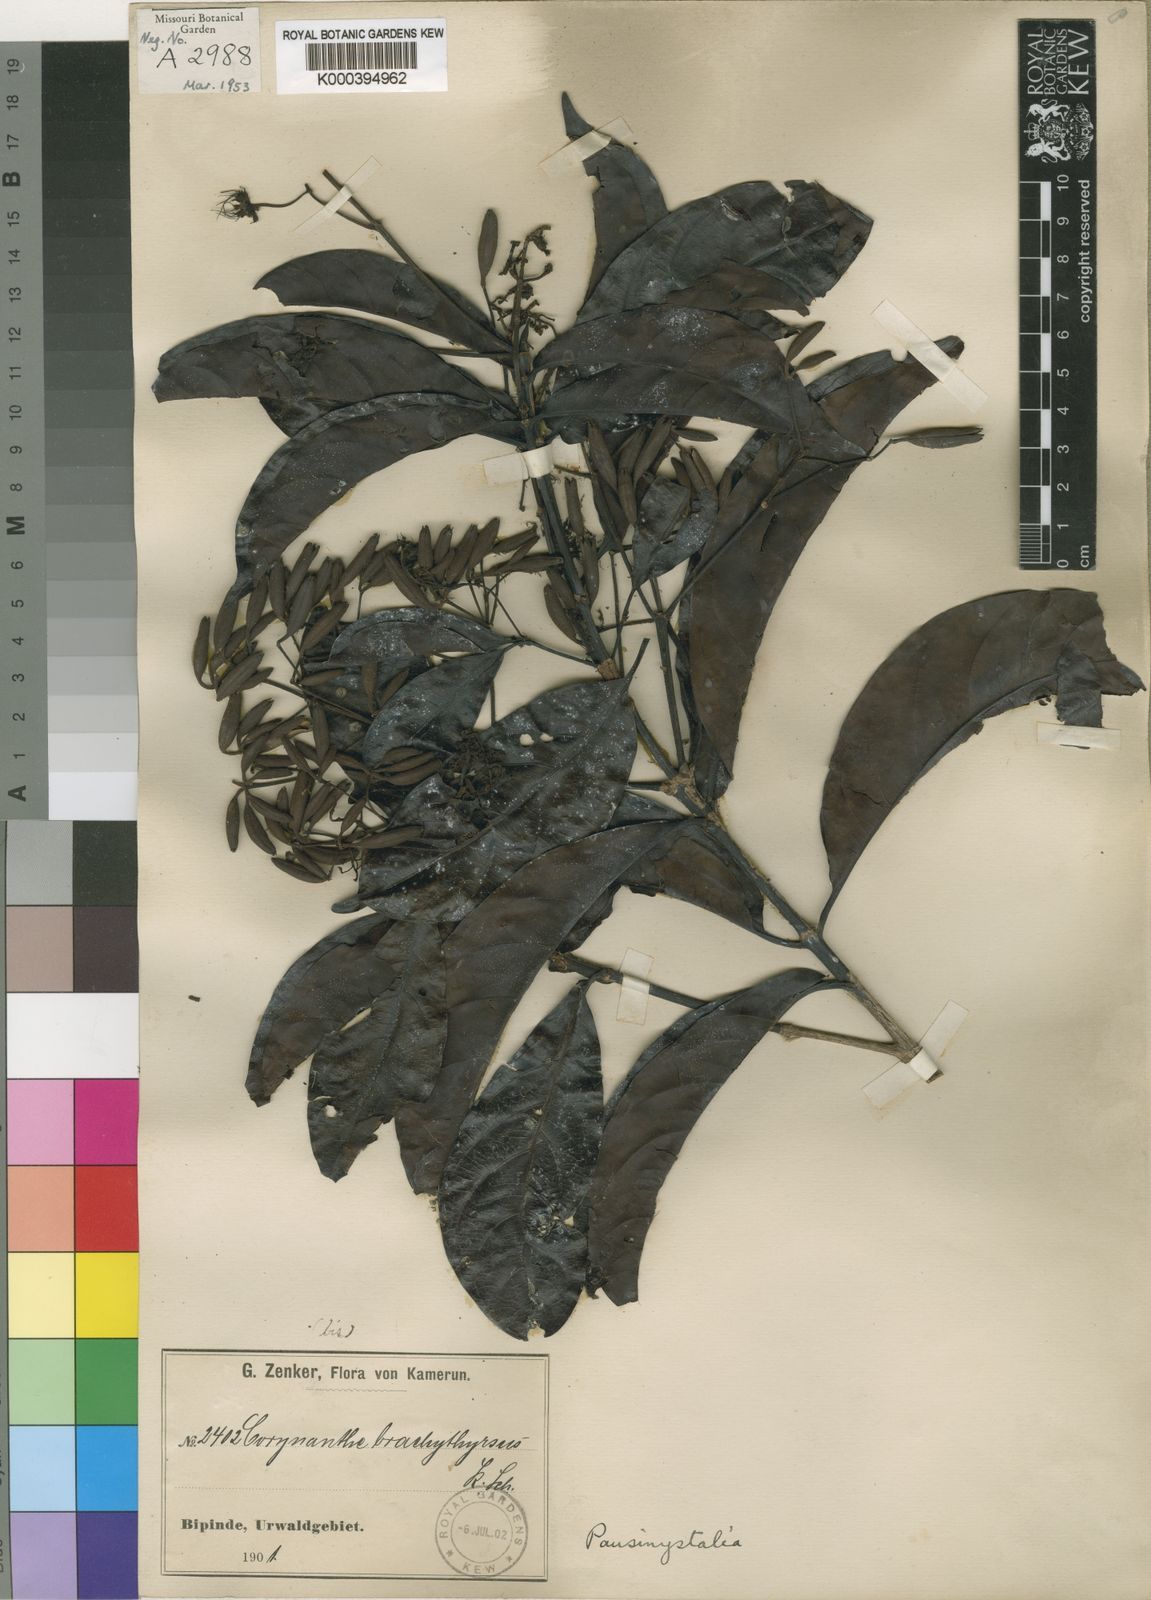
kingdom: Plantae
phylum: Tracheophyta
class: Magnoliopsida
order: Gentianales
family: Rubiaceae
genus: Pausinystalia
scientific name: Pausinystalia
